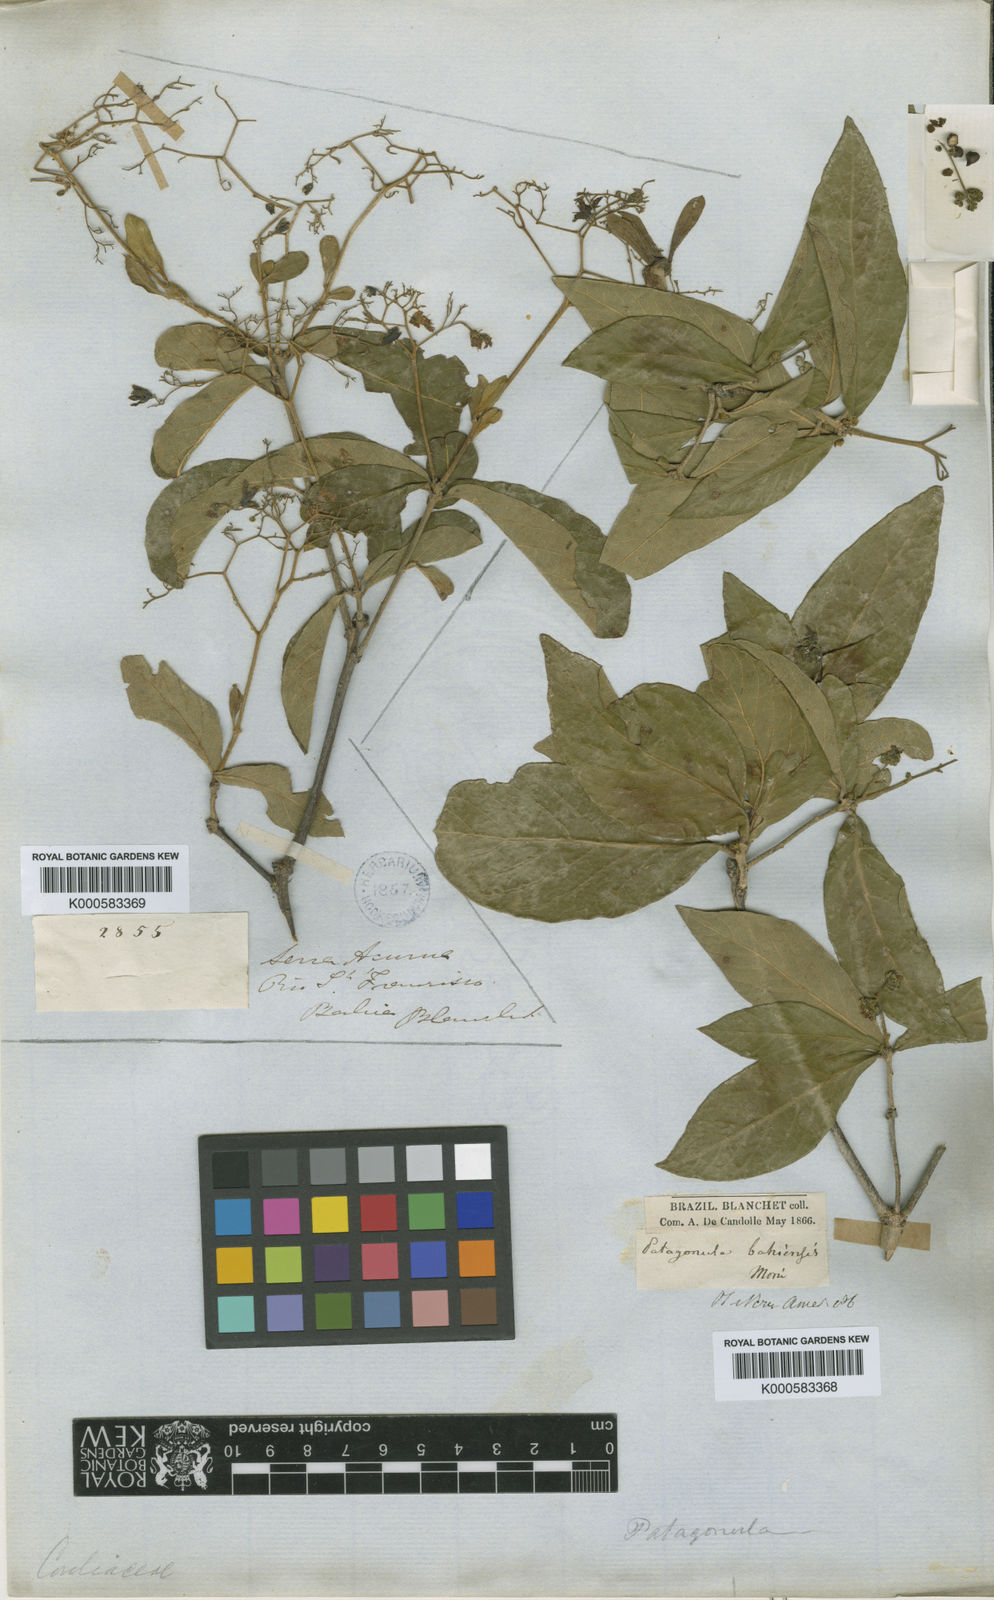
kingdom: Plantae
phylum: Tracheophyta
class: Magnoliopsida
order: Boraginales
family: Cordiaceae
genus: Cordia
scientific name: Cordia americana
